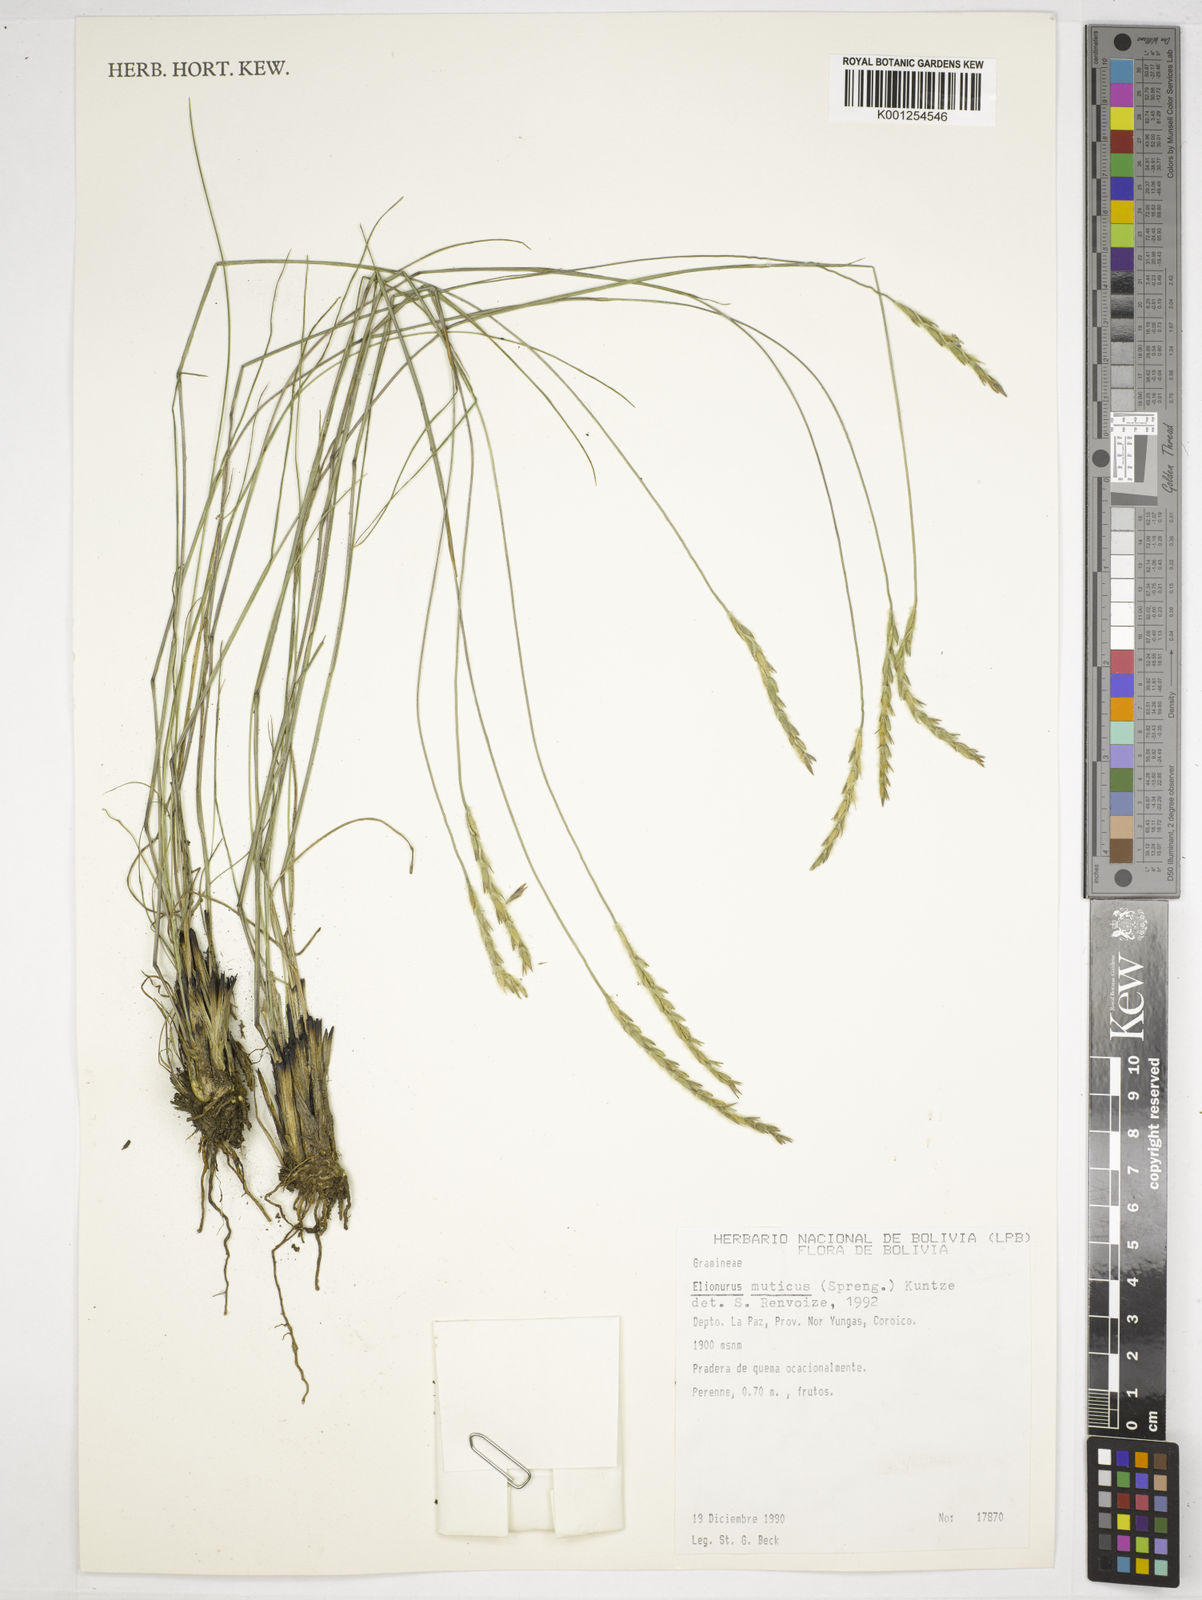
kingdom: Plantae
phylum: Tracheophyta
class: Liliopsida
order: Poales
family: Poaceae
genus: Elionurus
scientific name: Elionurus muticus
